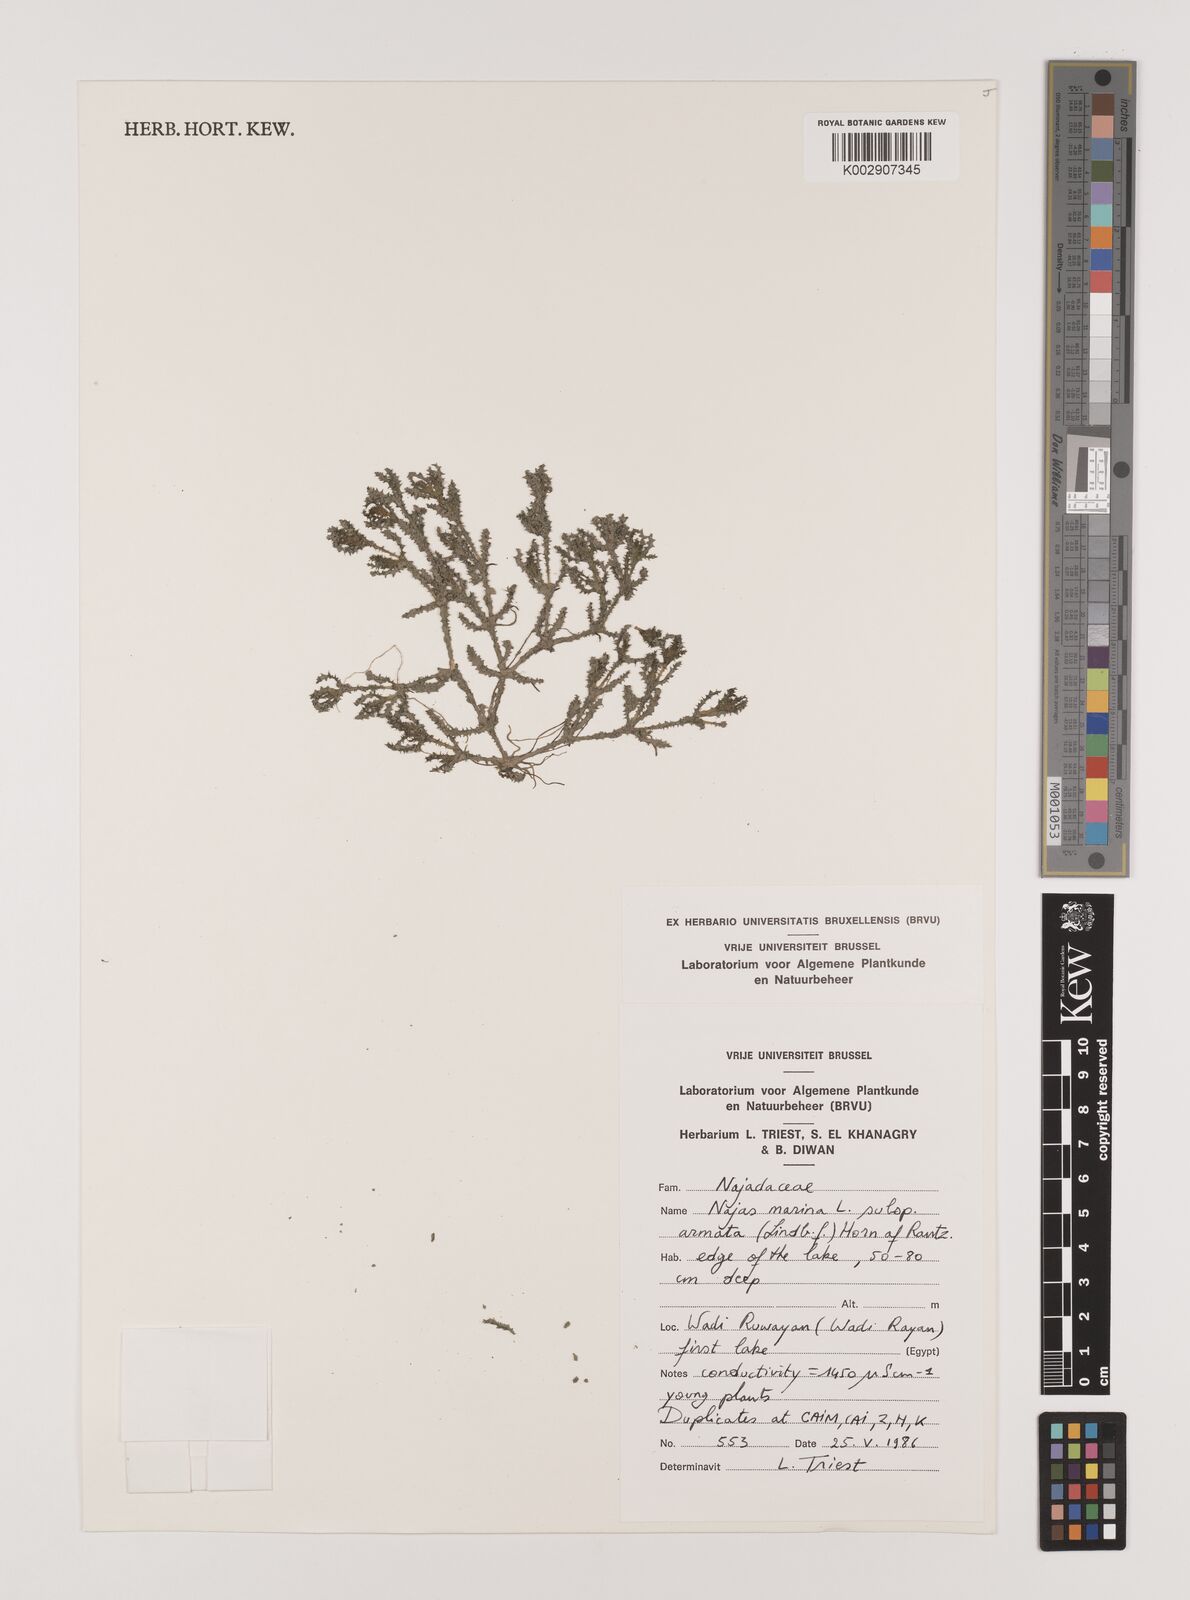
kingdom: Plantae
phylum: Tracheophyta
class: Liliopsida
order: Alismatales
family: Hydrocharitaceae
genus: Najas
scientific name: Najas marina
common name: Holly-leaved naiad
